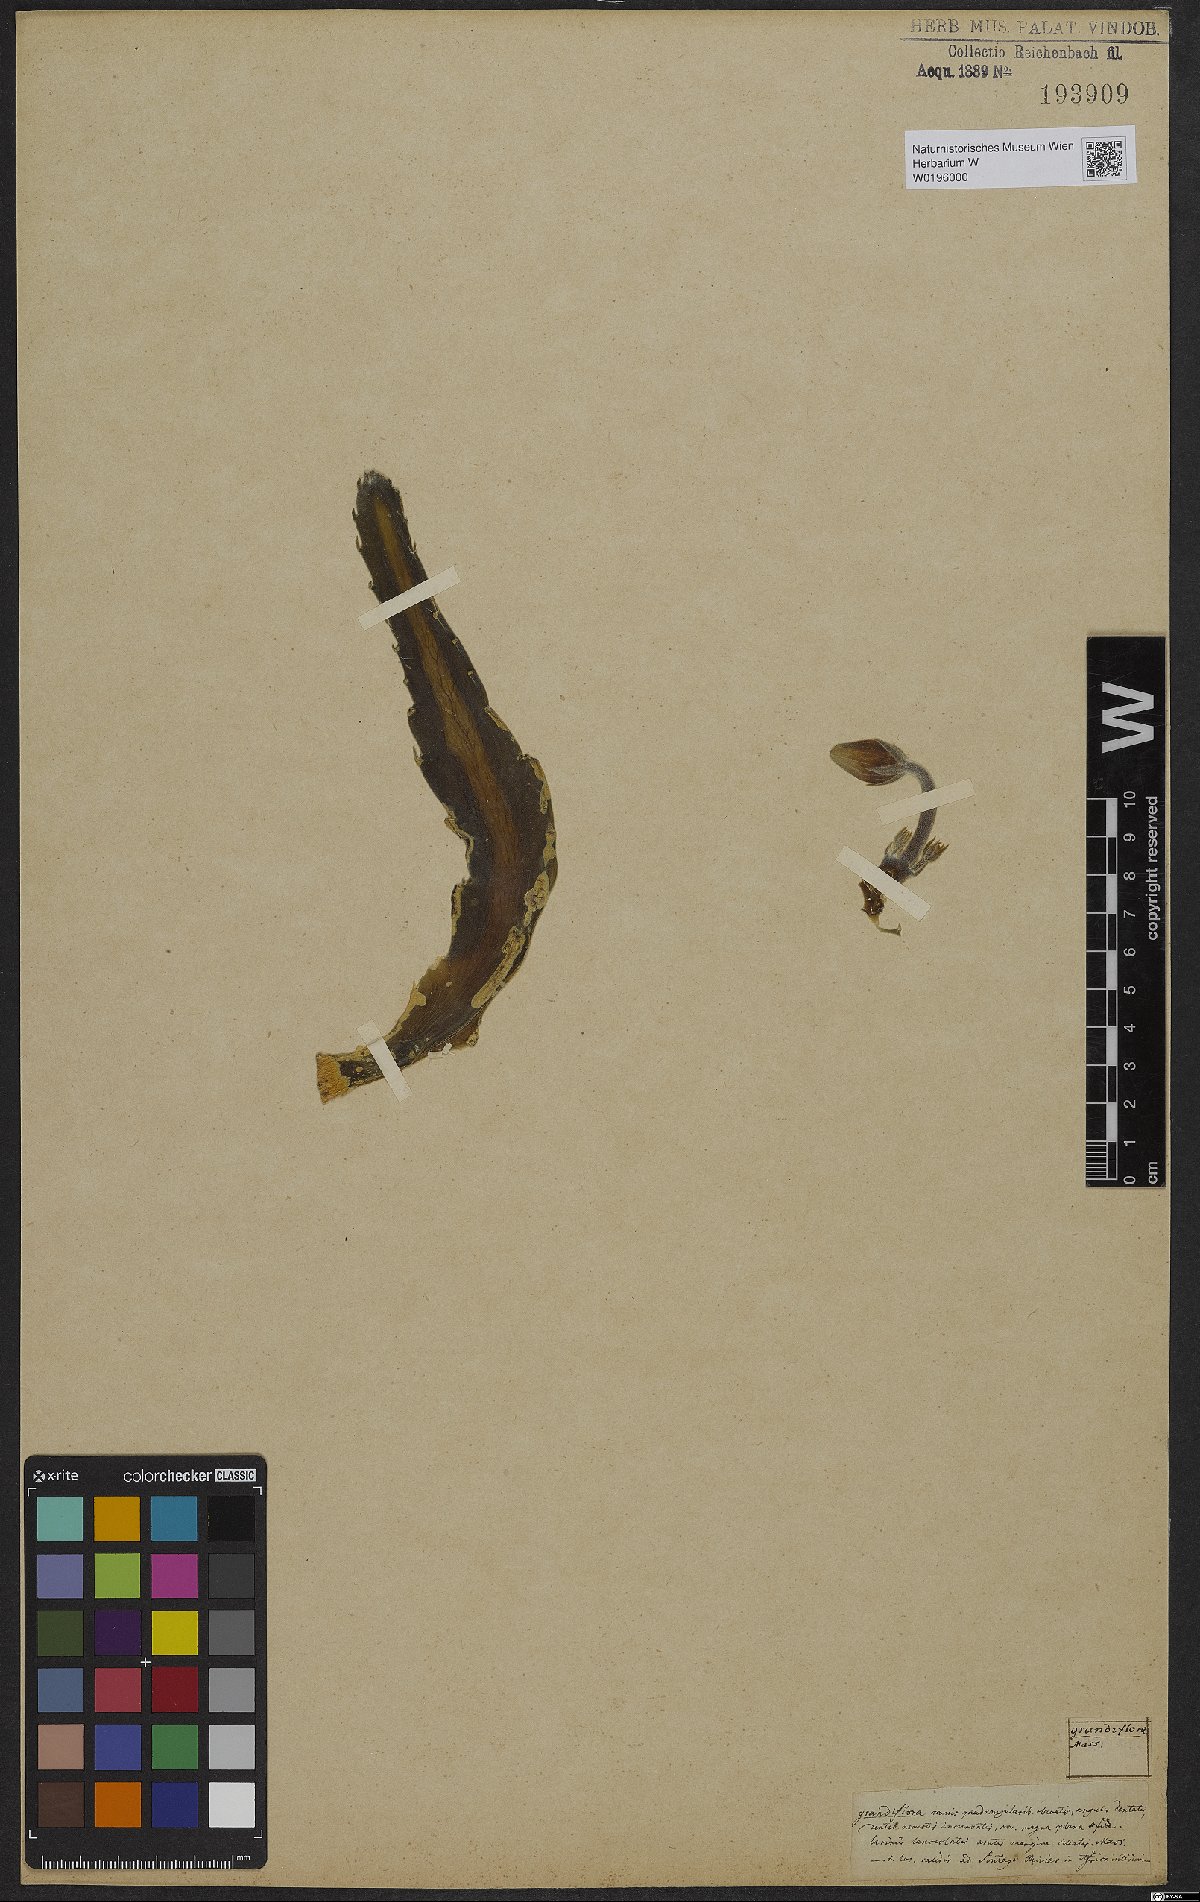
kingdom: Plantae
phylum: Tracheophyta
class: Magnoliopsida
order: Gentianales
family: Apocynaceae
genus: Ceropegia
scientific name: Ceropegia grandiflora
